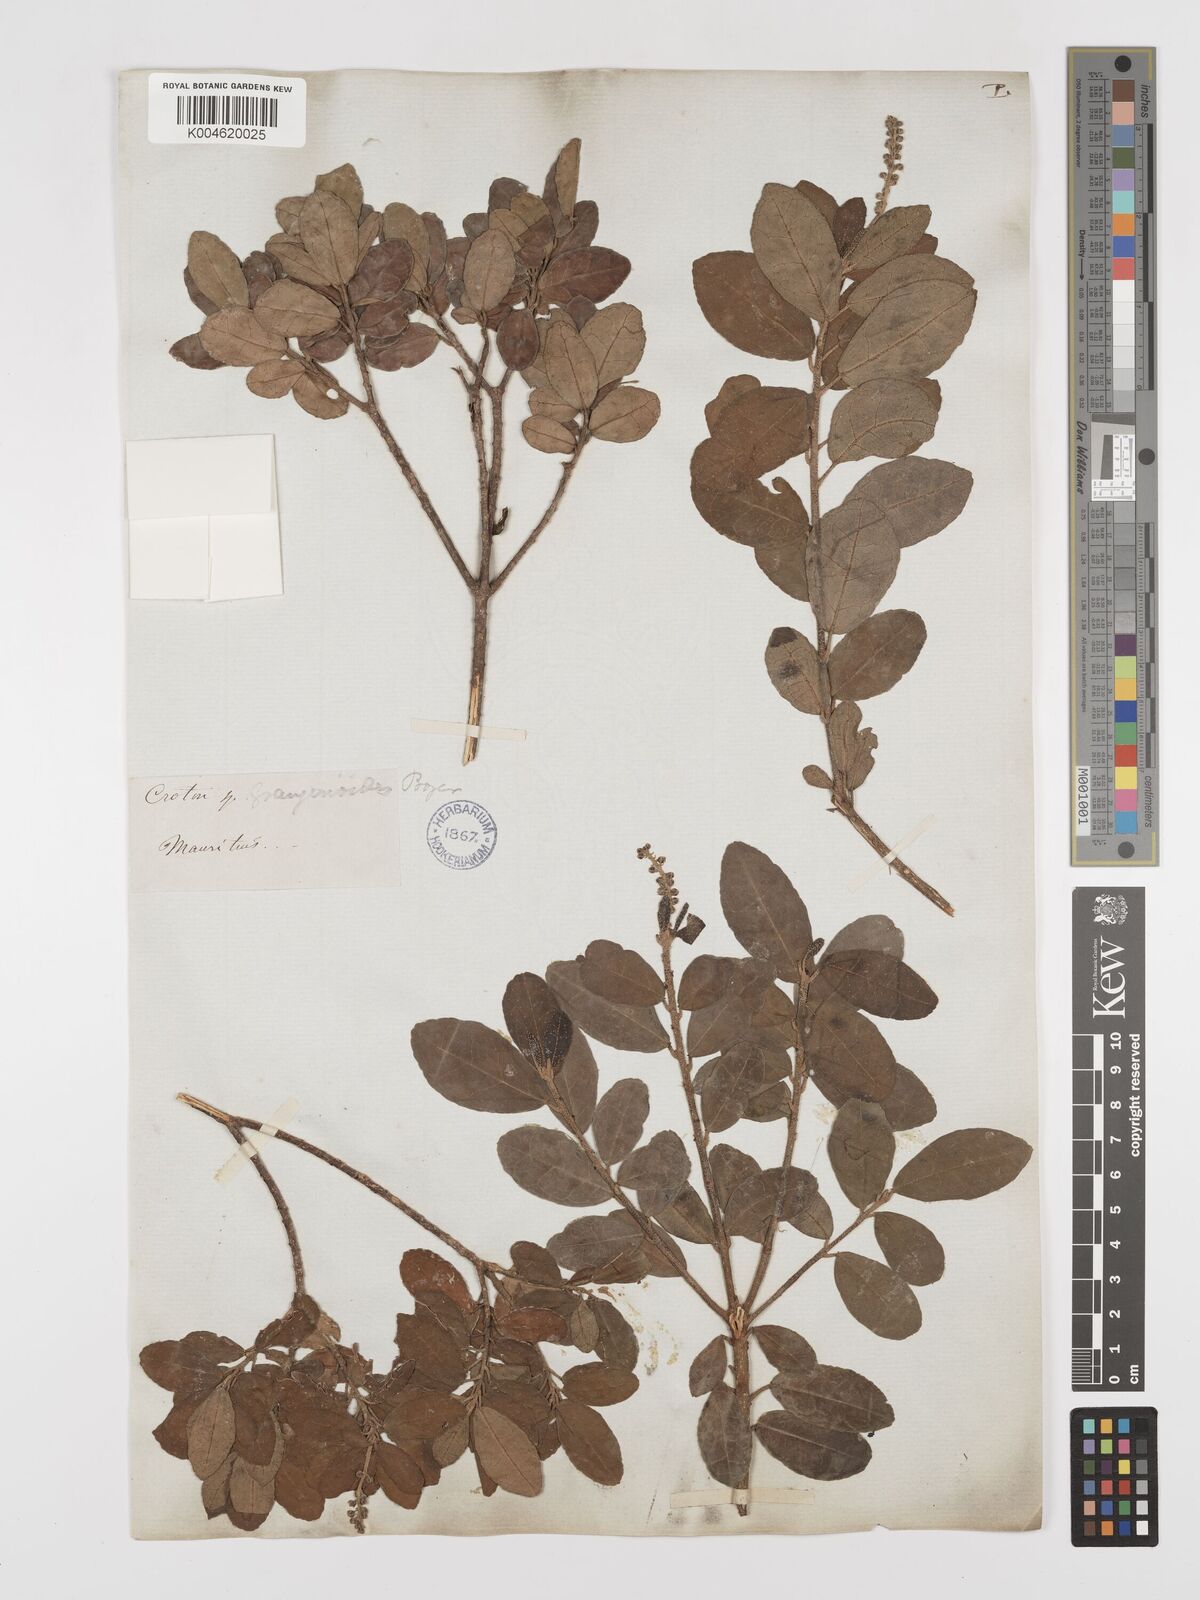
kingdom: Plantae
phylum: Tracheophyta
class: Magnoliopsida
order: Malpighiales
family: Euphorbiaceae
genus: Croton
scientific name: Croton grangerioides
